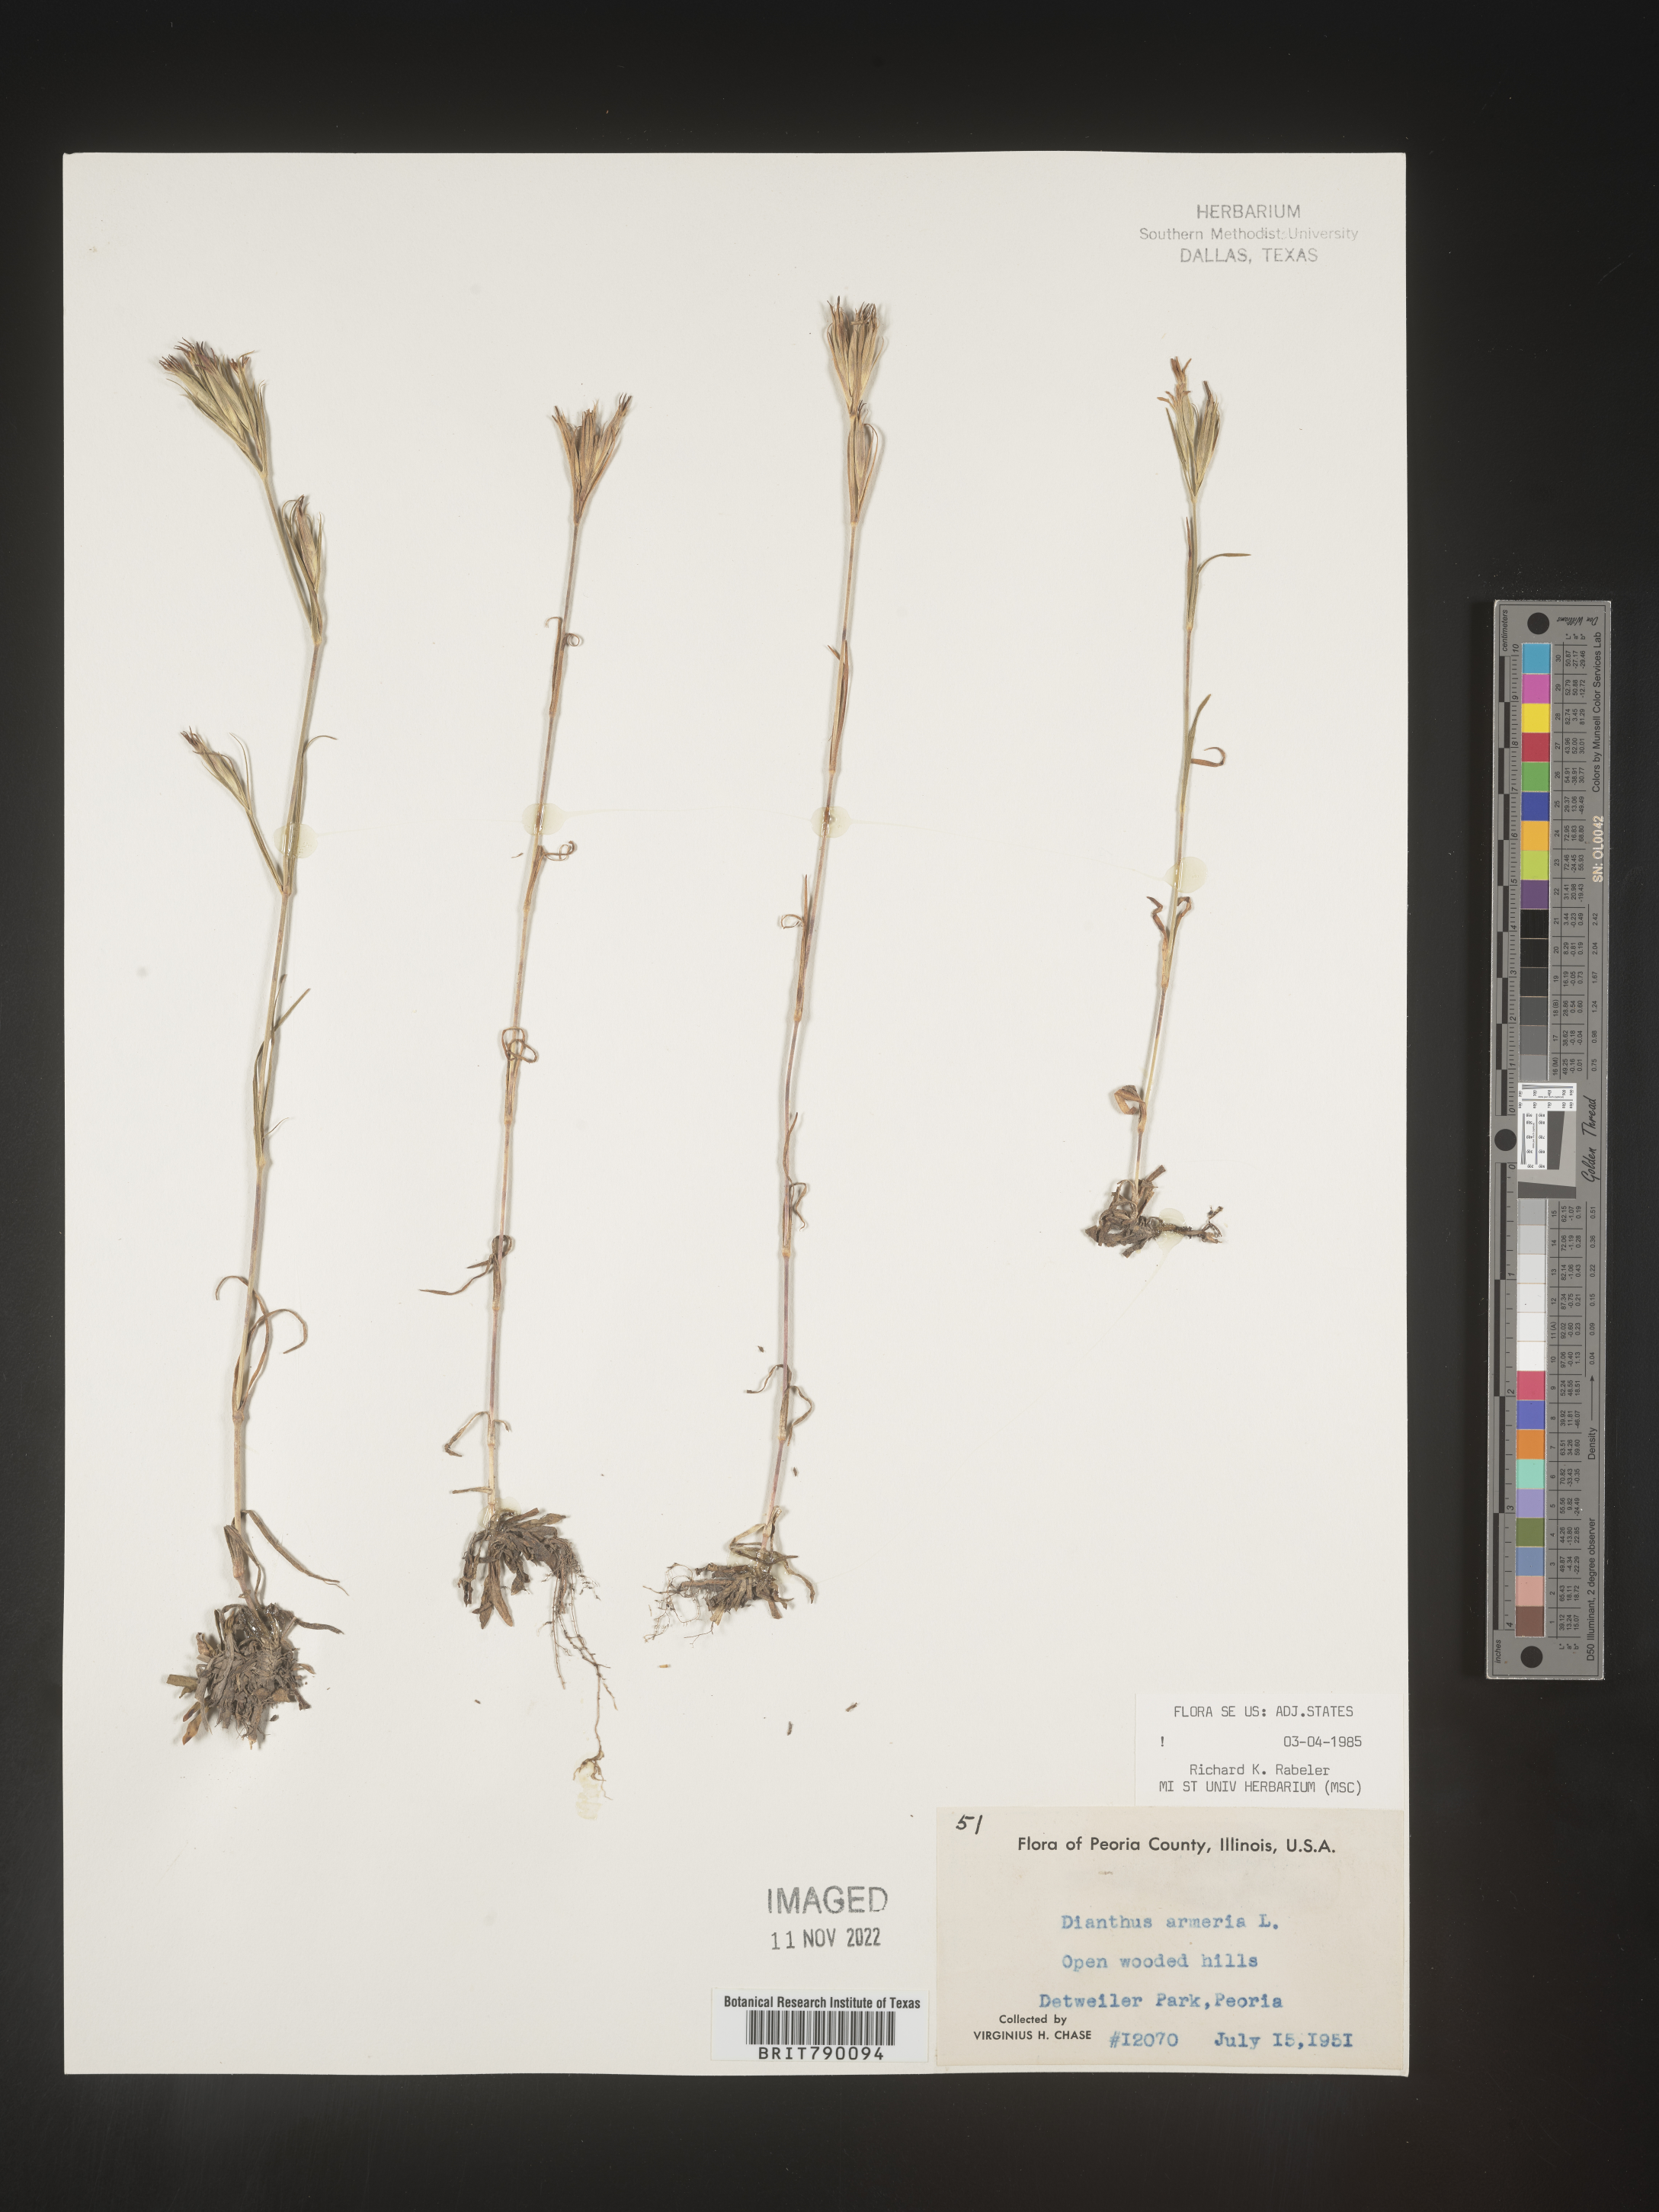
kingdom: Plantae
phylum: Tracheophyta
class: Magnoliopsida
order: Caryophyllales
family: Caryophyllaceae
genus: Dianthus
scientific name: Dianthus armeria
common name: Deptford pink
